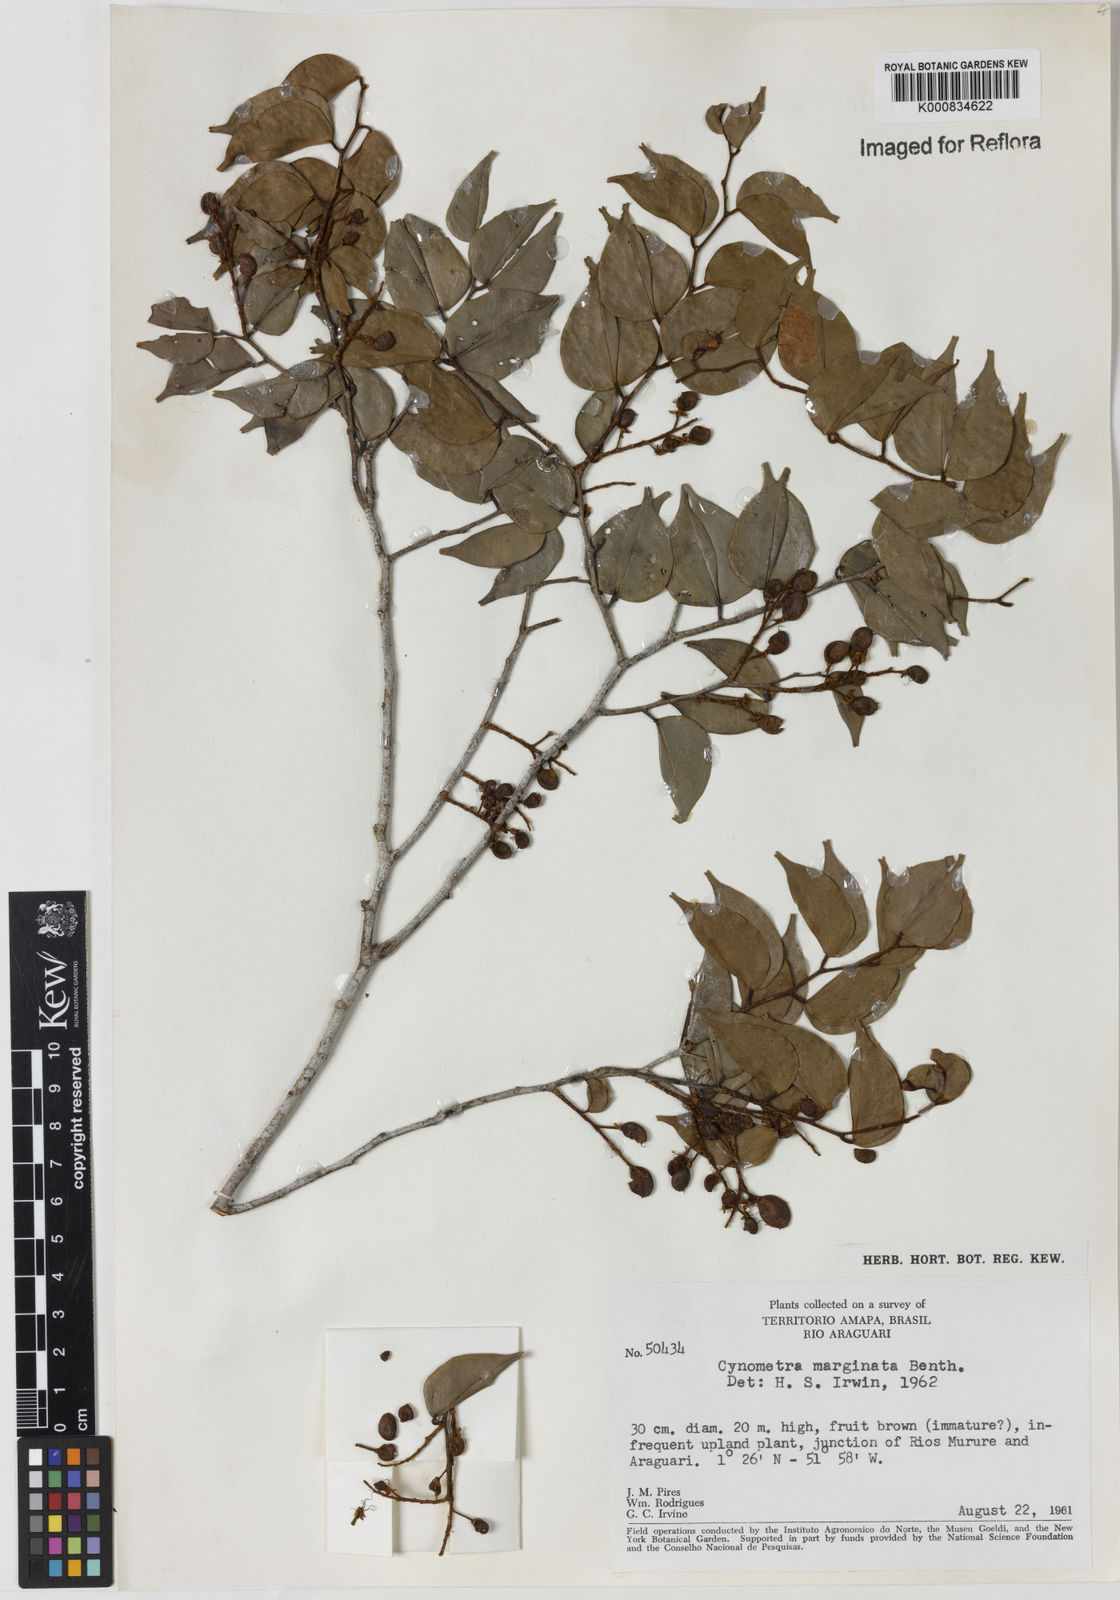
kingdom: Plantae
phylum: Tracheophyta
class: Magnoliopsida
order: Fabales
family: Fabaceae
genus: Cynometra
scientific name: Cynometra
